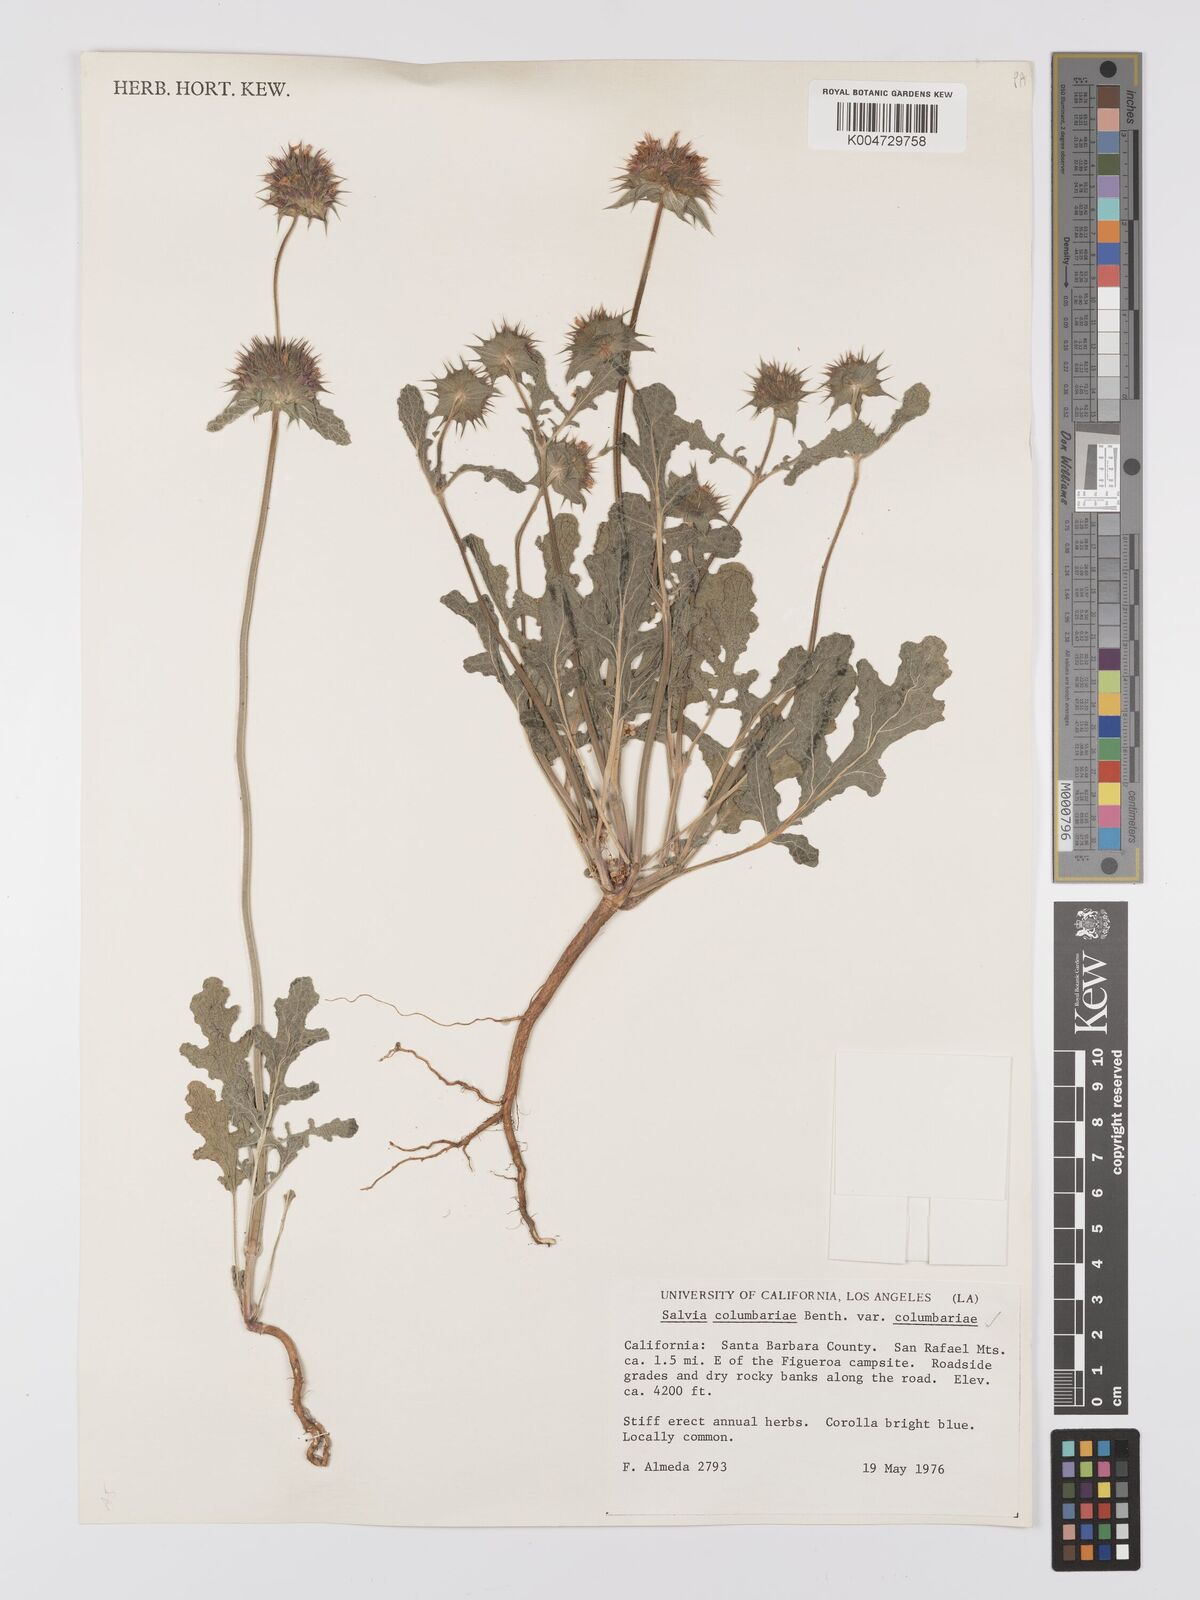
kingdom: Plantae
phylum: Tracheophyta
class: Magnoliopsida
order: Lamiales
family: Lamiaceae
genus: Salvia
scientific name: Salvia columbariae
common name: Chia
